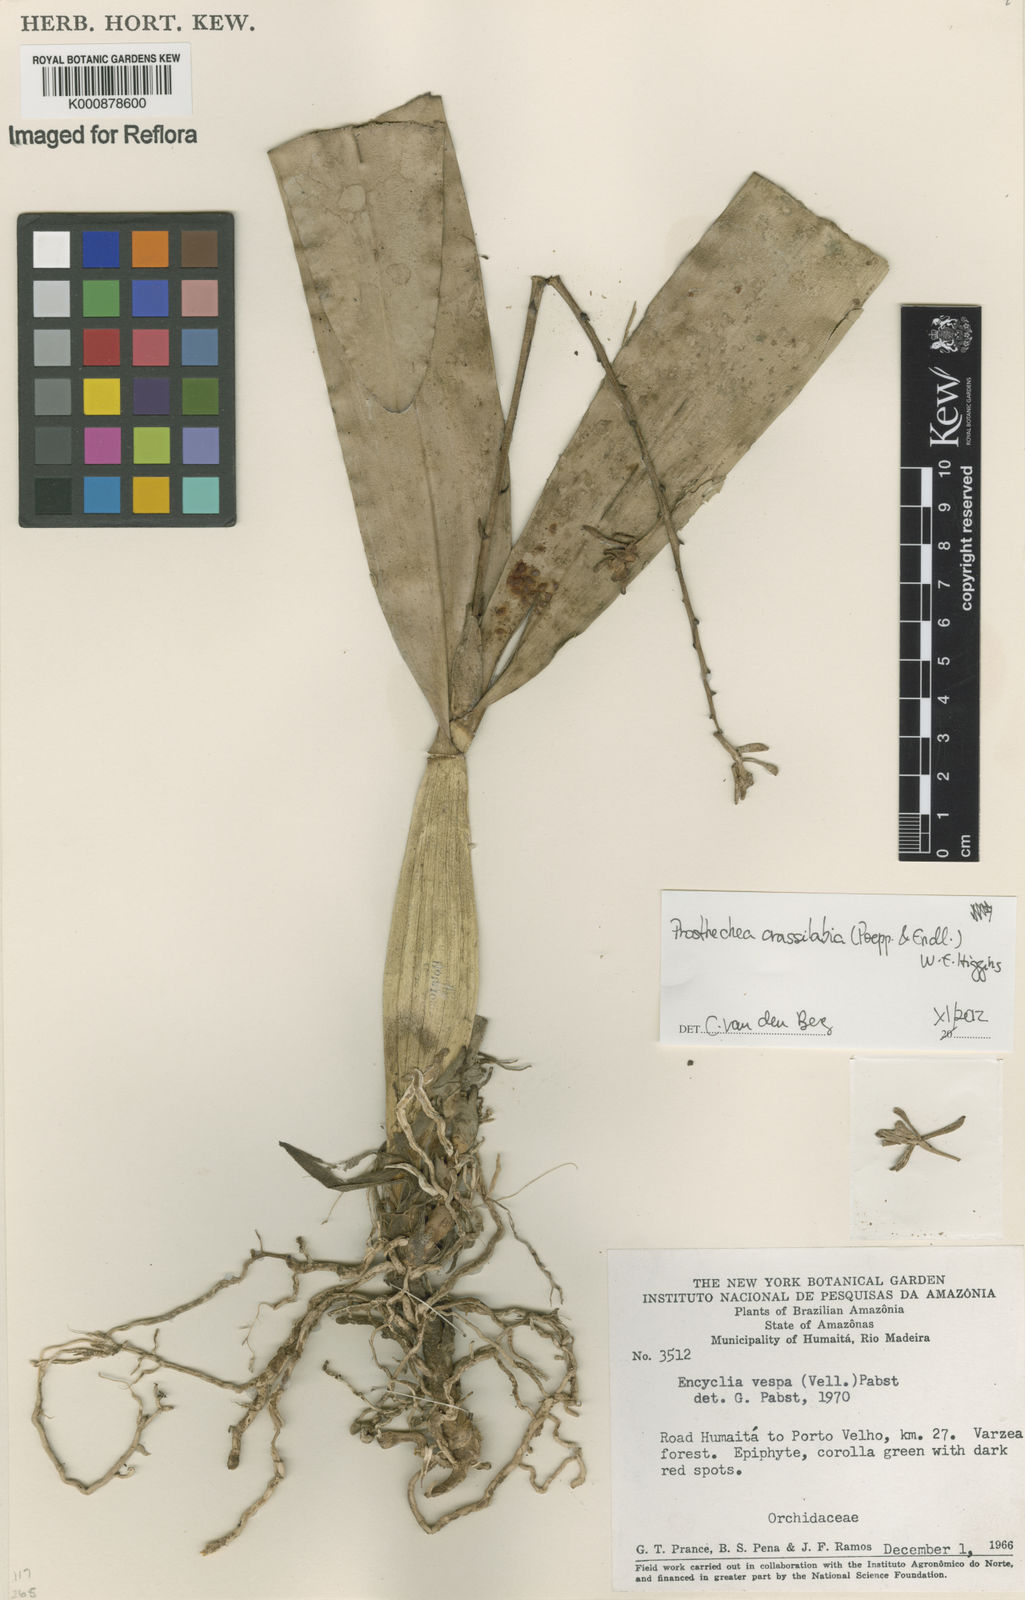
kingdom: Plantae
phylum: Tracheophyta
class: Liliopsida
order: Asparagales
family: Orchidaceae
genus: Prosthechea
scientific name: Prosthechea
